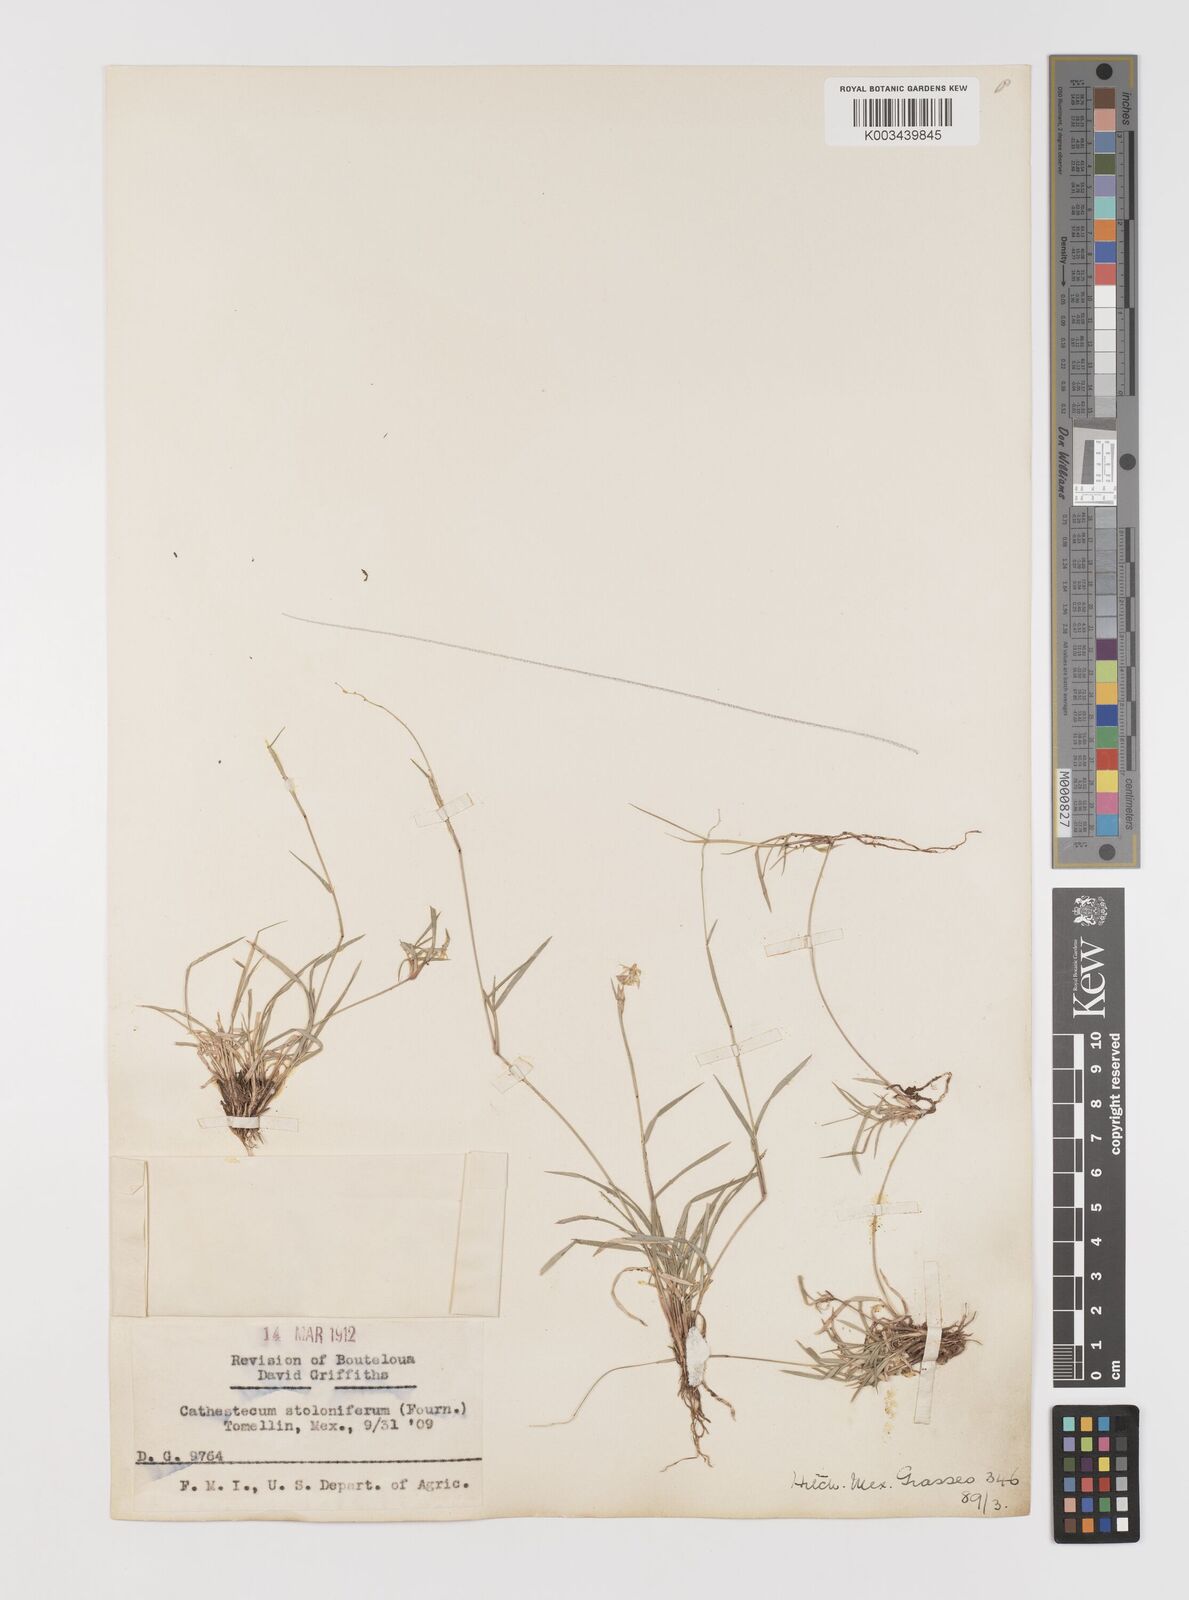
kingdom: Plantae
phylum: Tracheophyta
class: Liliopsida
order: Poales
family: Poaceae
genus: Bouteloua
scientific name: Bouteloua varia
